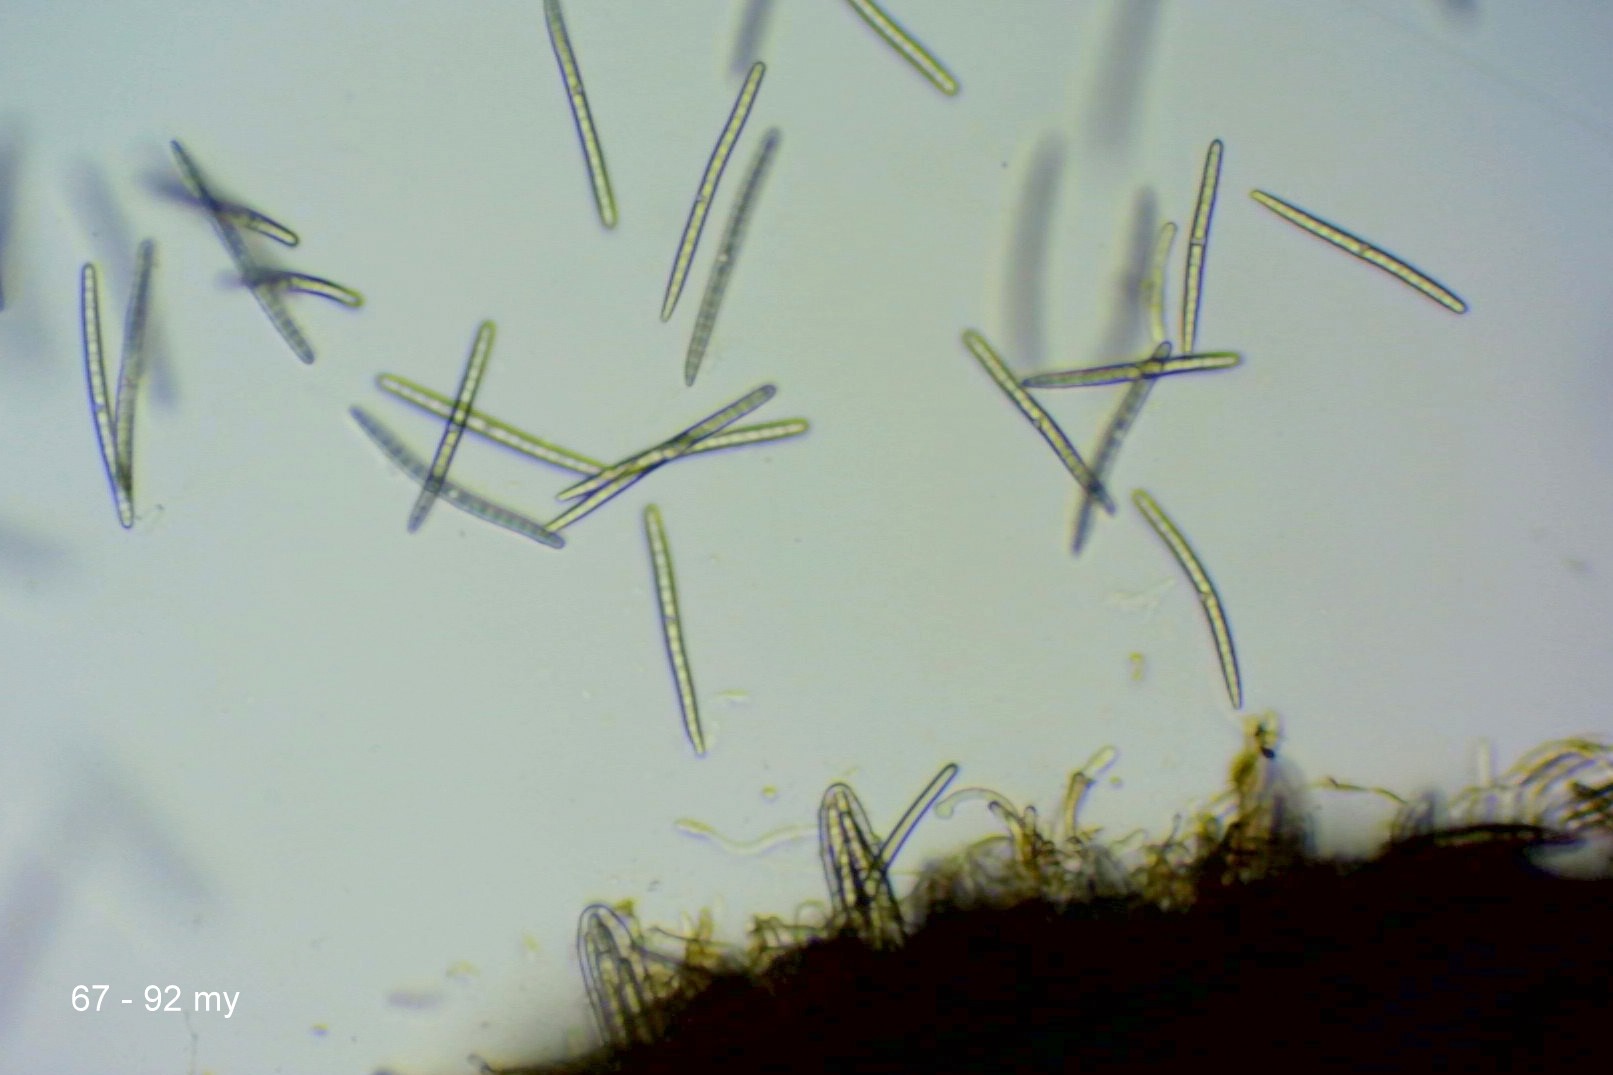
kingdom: Fungi
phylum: Ascomycota
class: Geoglossomycetes
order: Geoglossales
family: Geoglossaceae
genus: Geoglossum
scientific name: Geoglossum fallax
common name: småskællet jordtunge
